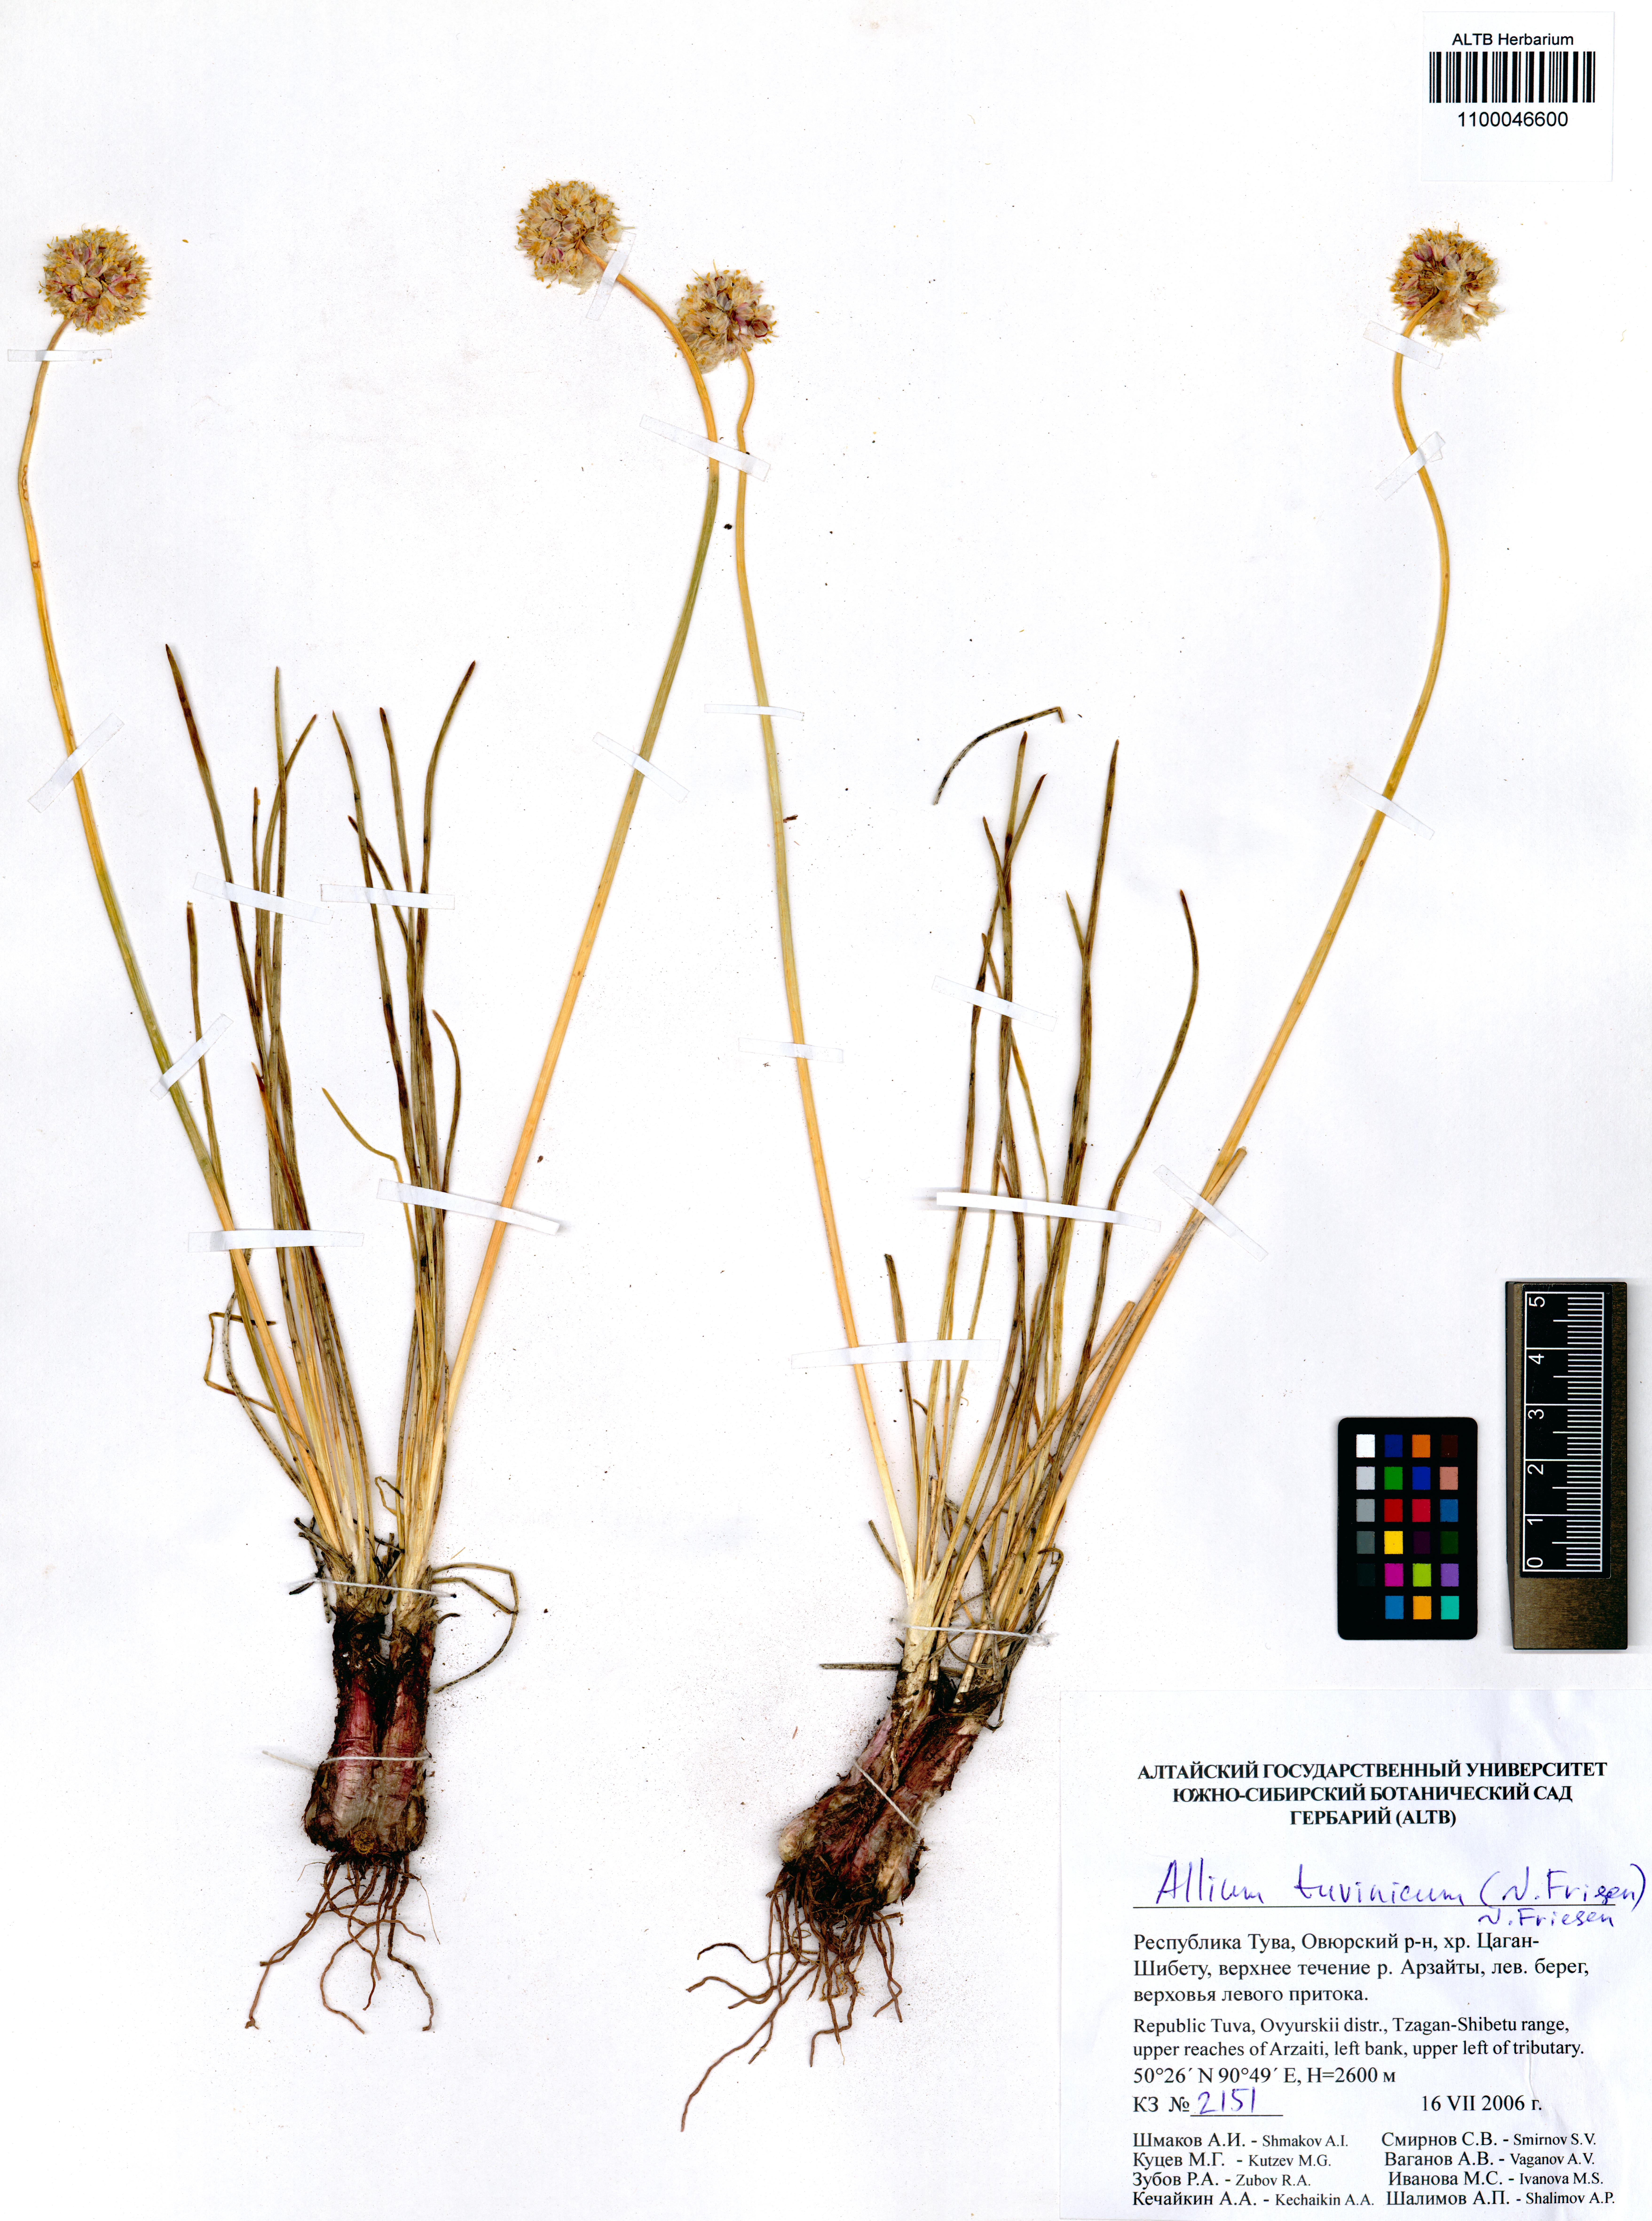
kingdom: Plantae
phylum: Tracheophyta
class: Liliopsida
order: Asparagales
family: Amaryllidaceae
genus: Allium
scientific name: Allium tuvinicum
